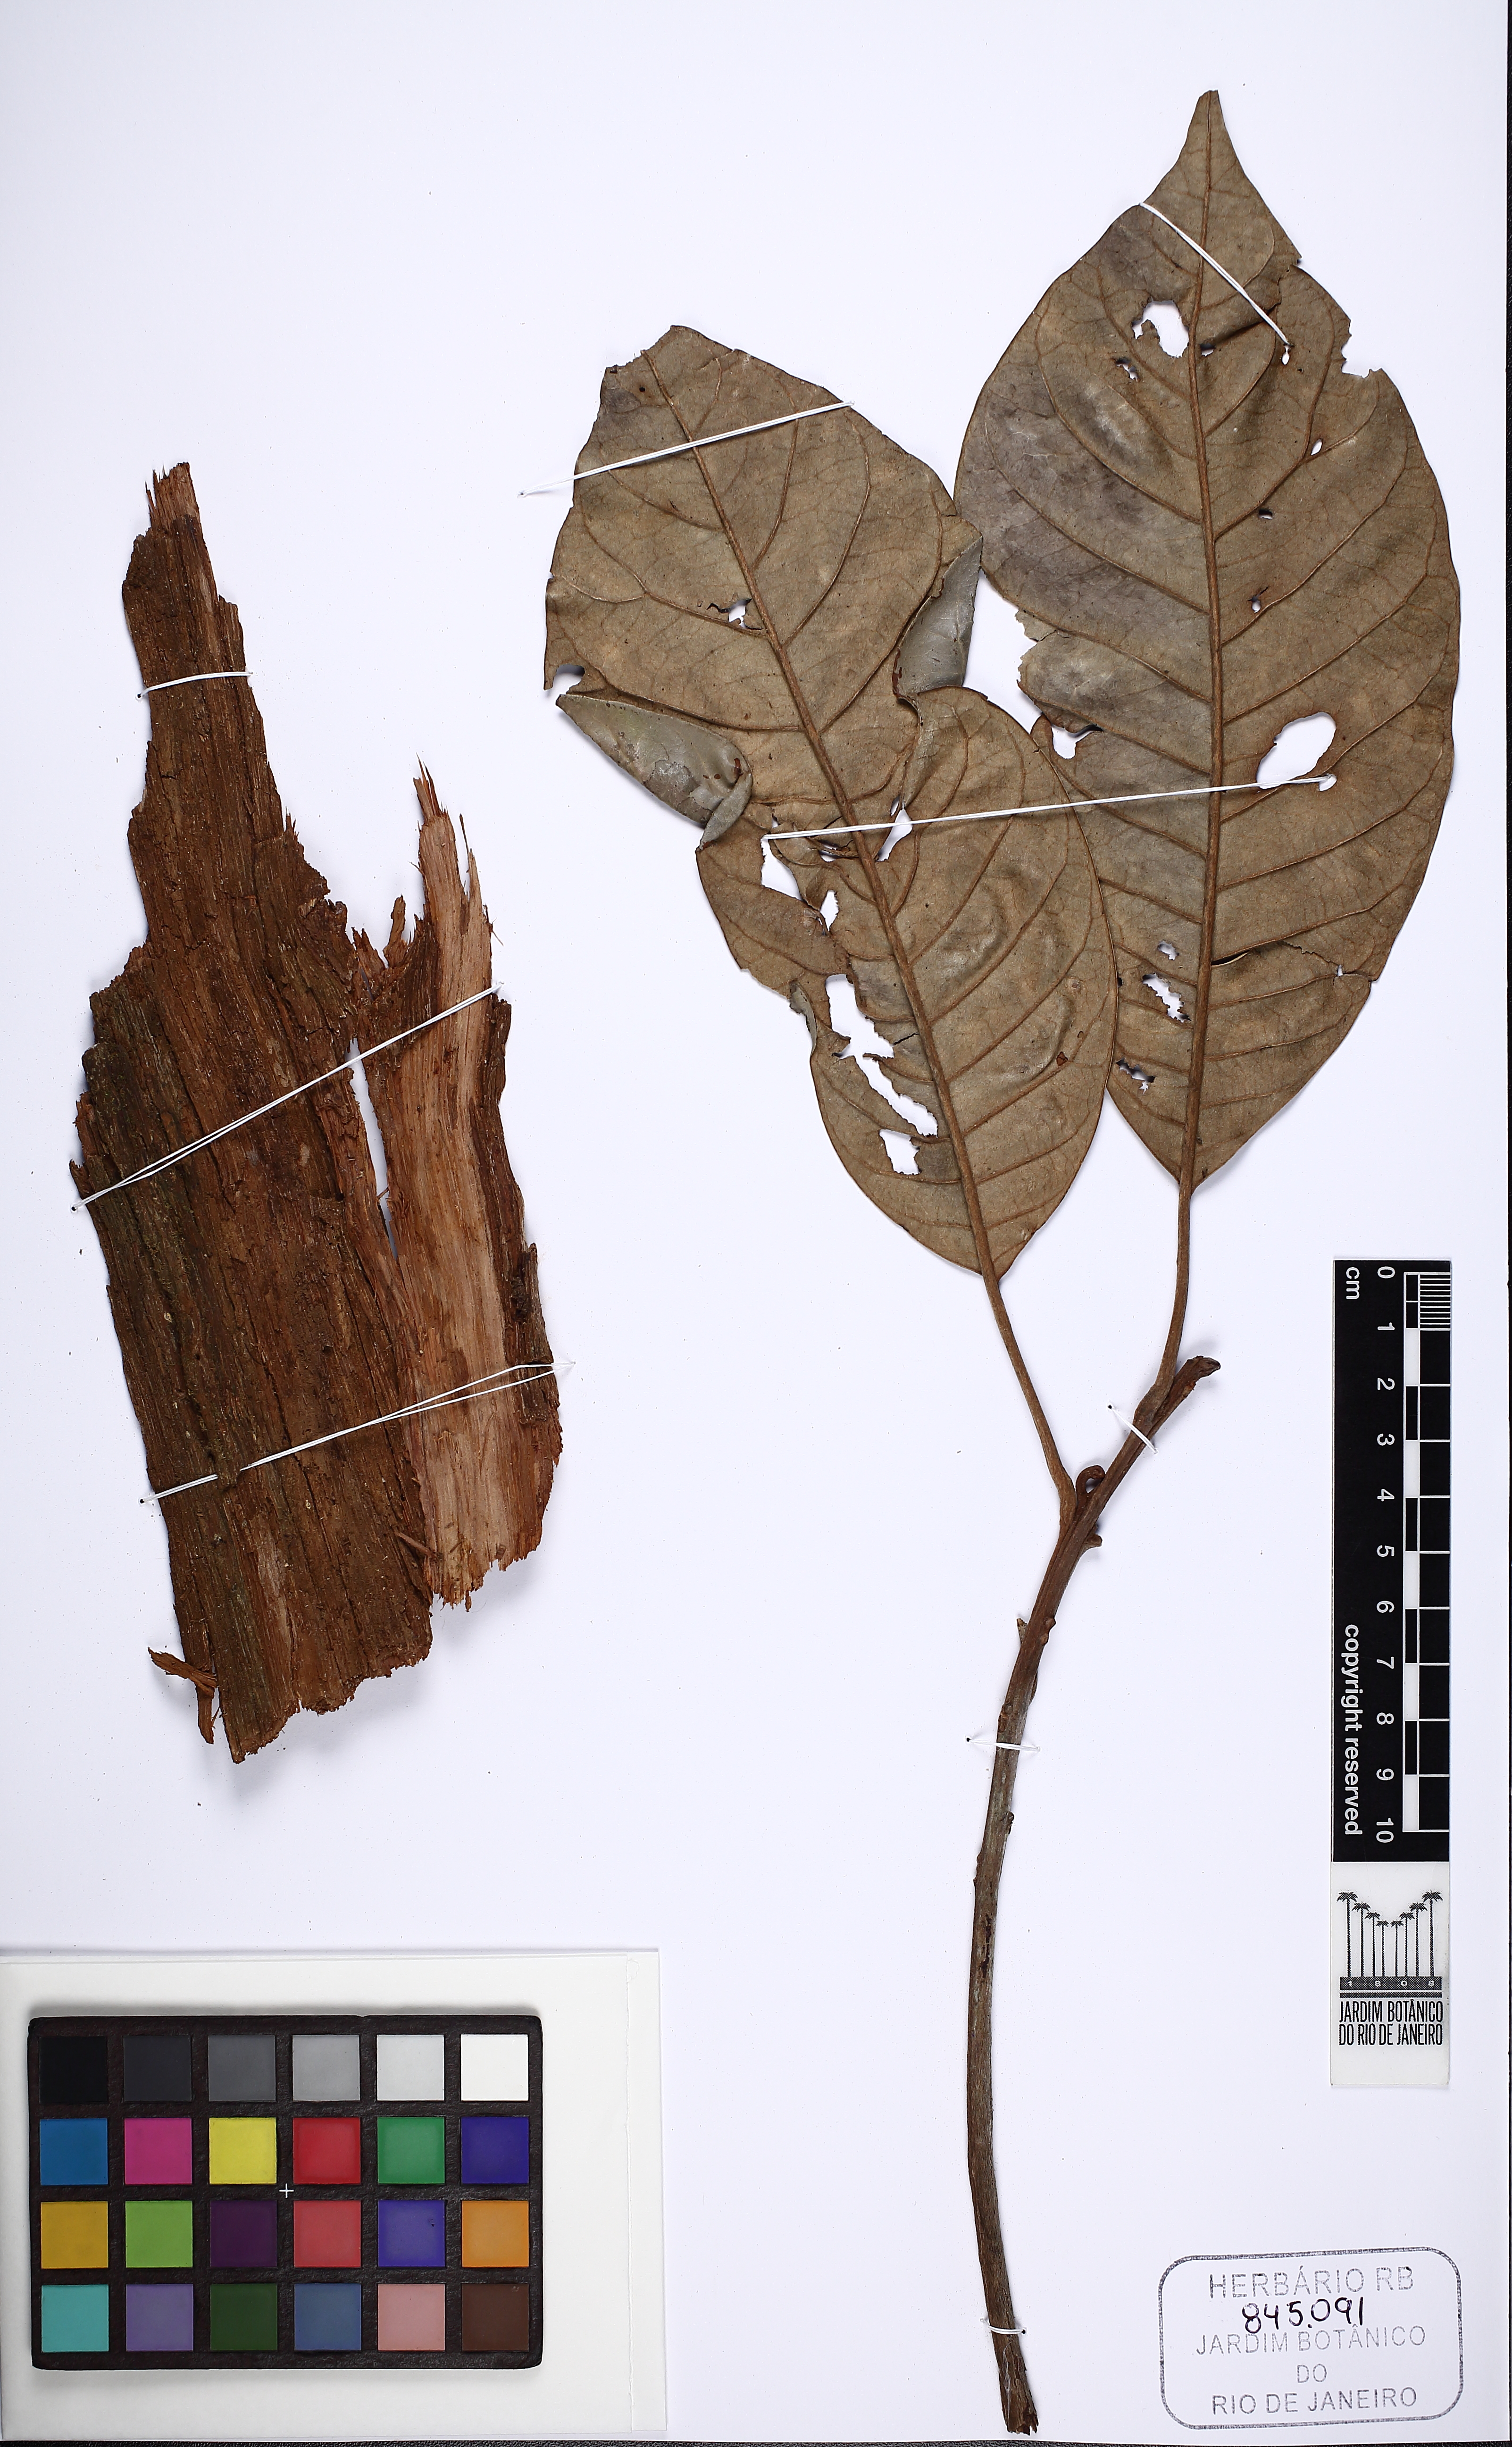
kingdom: Plantae
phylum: Tracheophyta
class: Magnoliopsida
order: Ericales
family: Sapotaceae
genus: Pouteria
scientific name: Pouteria freitasii
